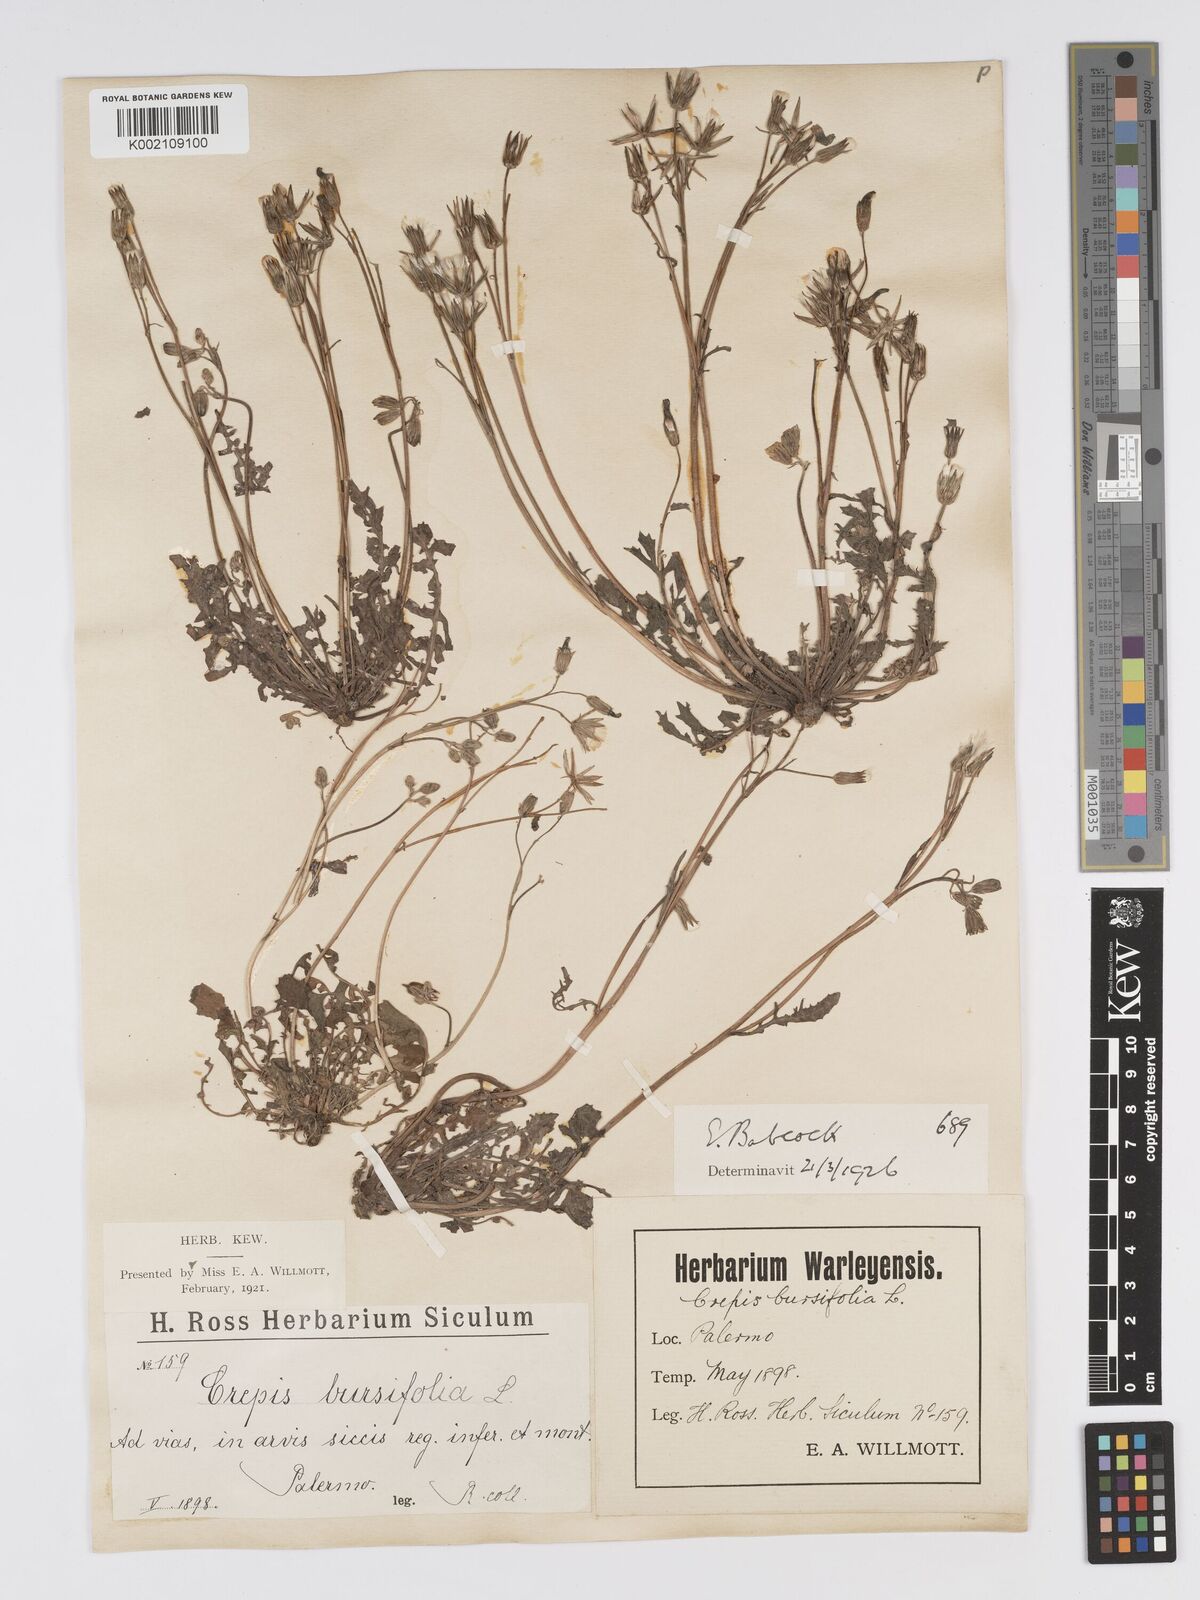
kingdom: Plantae
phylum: Tracheophyta
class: Magnoliopsida
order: Asterales
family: Asteraceae
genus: Crepis
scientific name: Crepis bursifolia
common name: Italian hawksbeard
